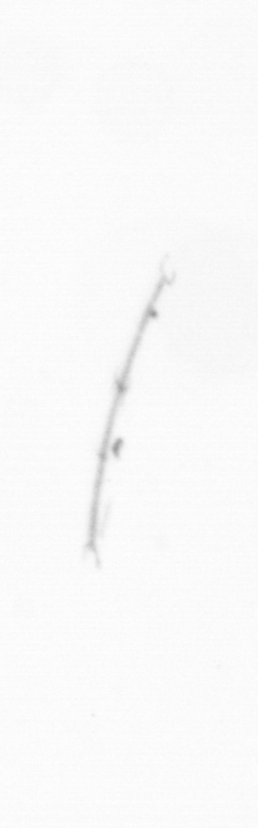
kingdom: Chromista
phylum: Ochrophyta
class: Bacillariophyceae
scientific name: Bacillariophyceae
